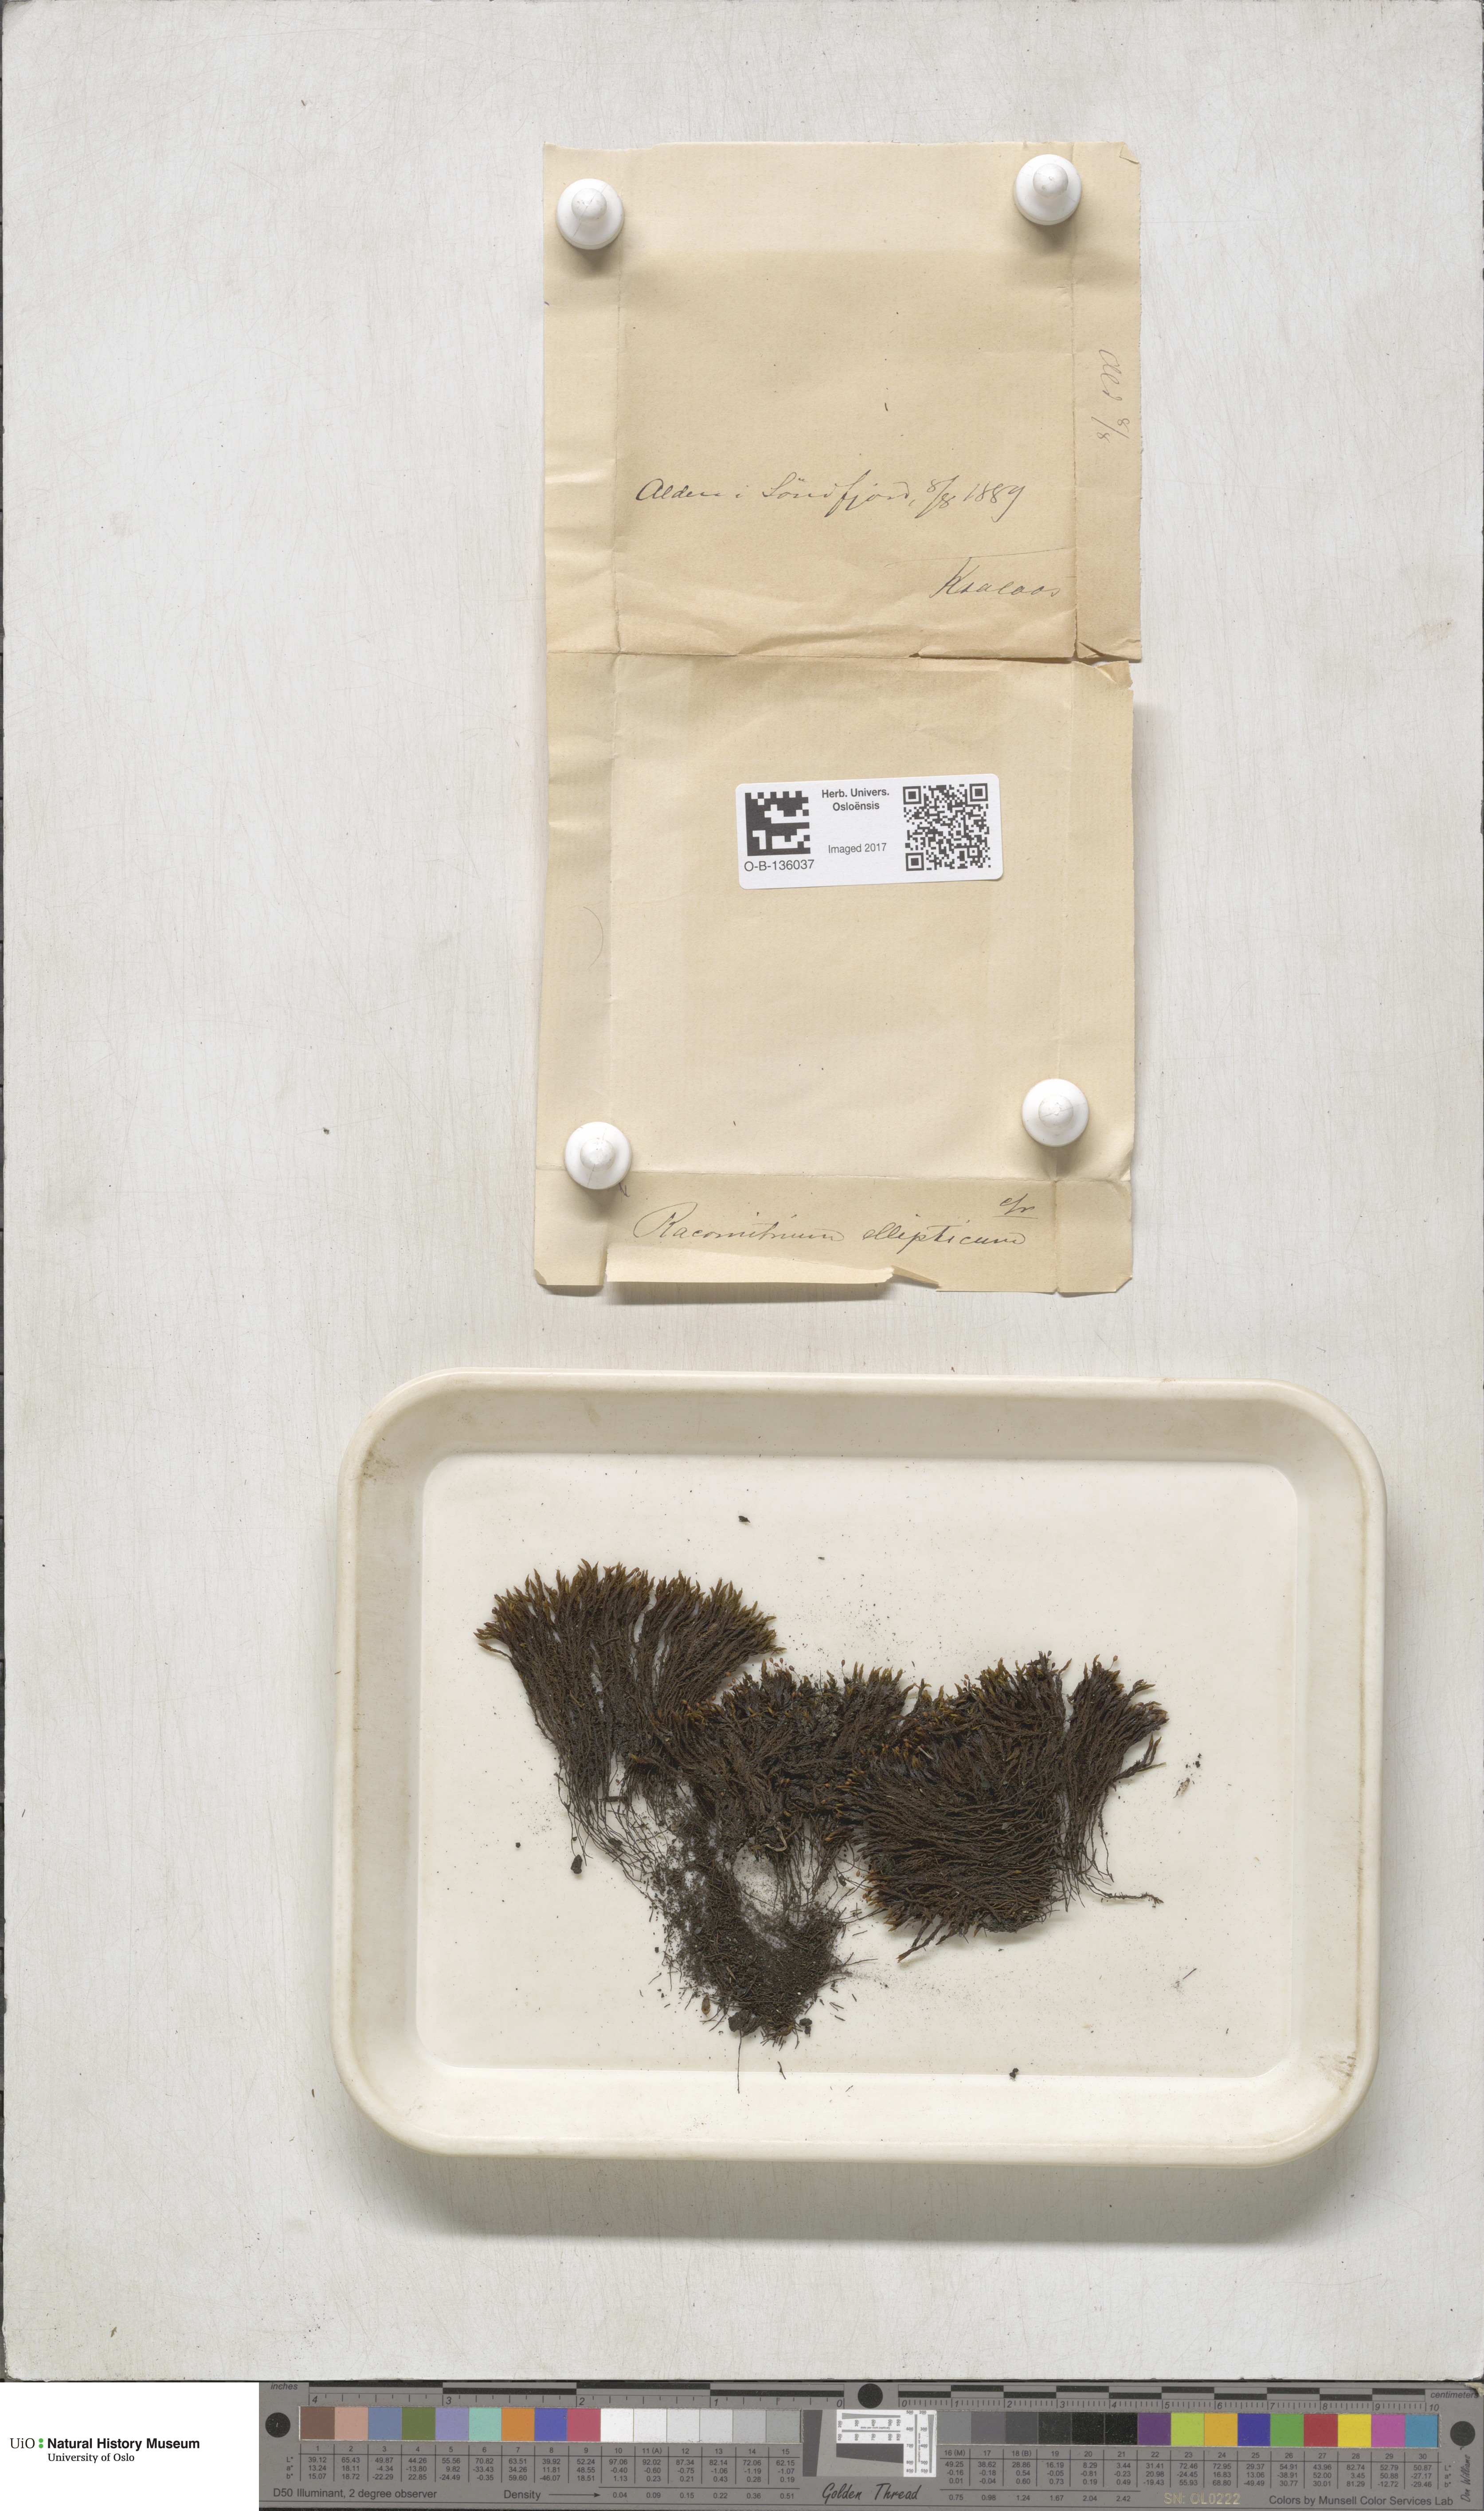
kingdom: Plantae
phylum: Bryophyta
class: Bryopsida
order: Grimmiales
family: Grimmiaceae
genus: Bucklandiella
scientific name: Bucklandiella elliptica
